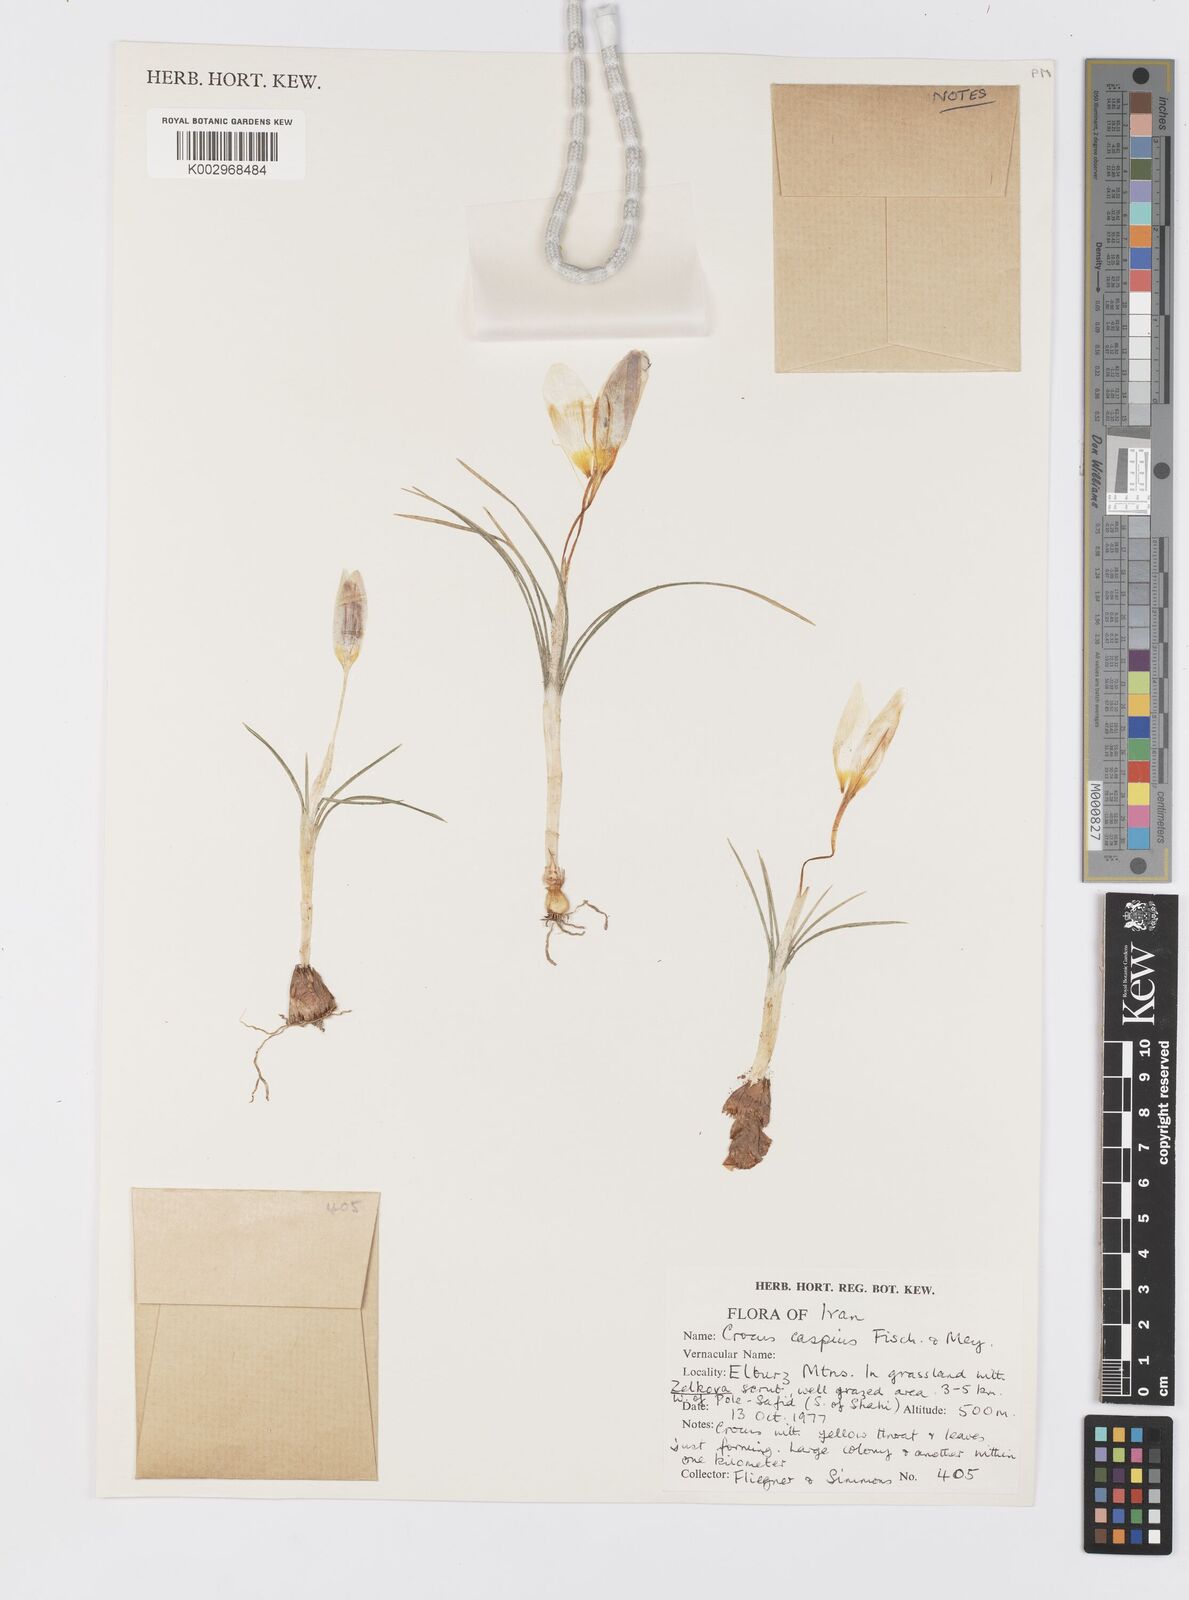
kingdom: Plantae
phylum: Tracheophyta
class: Liliopsida
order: Asparagales
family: Iridaceae
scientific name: Iridaceae
